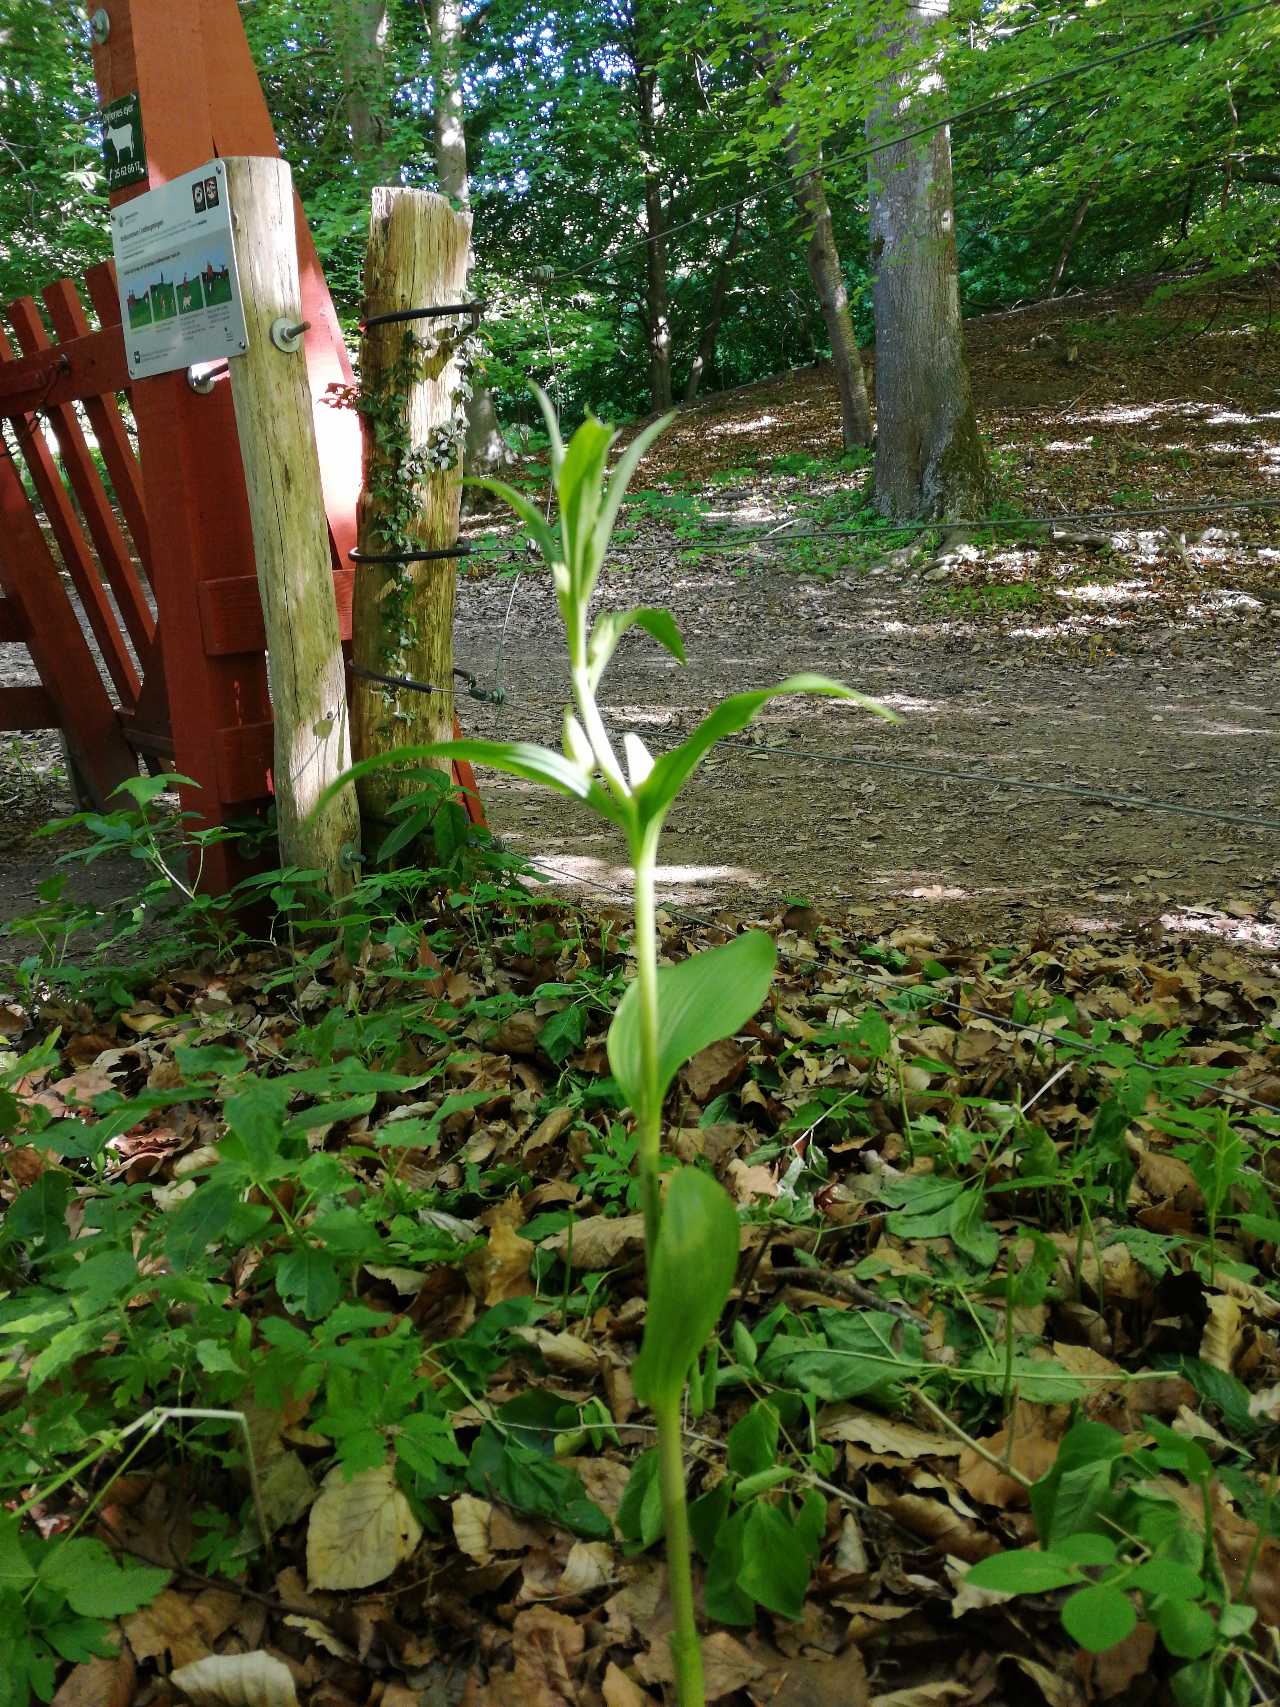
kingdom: Plantae
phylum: Tracheophyta
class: Liliopsida
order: Asparagales
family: Orchidaceae
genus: Cephalanthera
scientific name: Cephalanthera damasonium
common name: Hvidgul skovlilje
